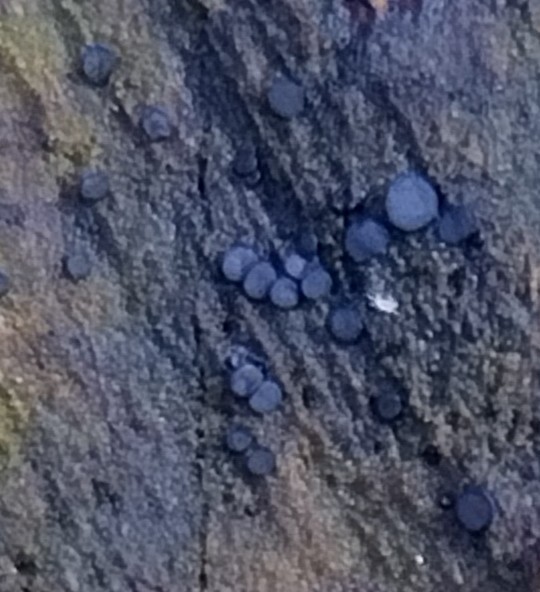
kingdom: Fungi
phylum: Ascomycota
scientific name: Ascomycota
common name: sæksvampe
